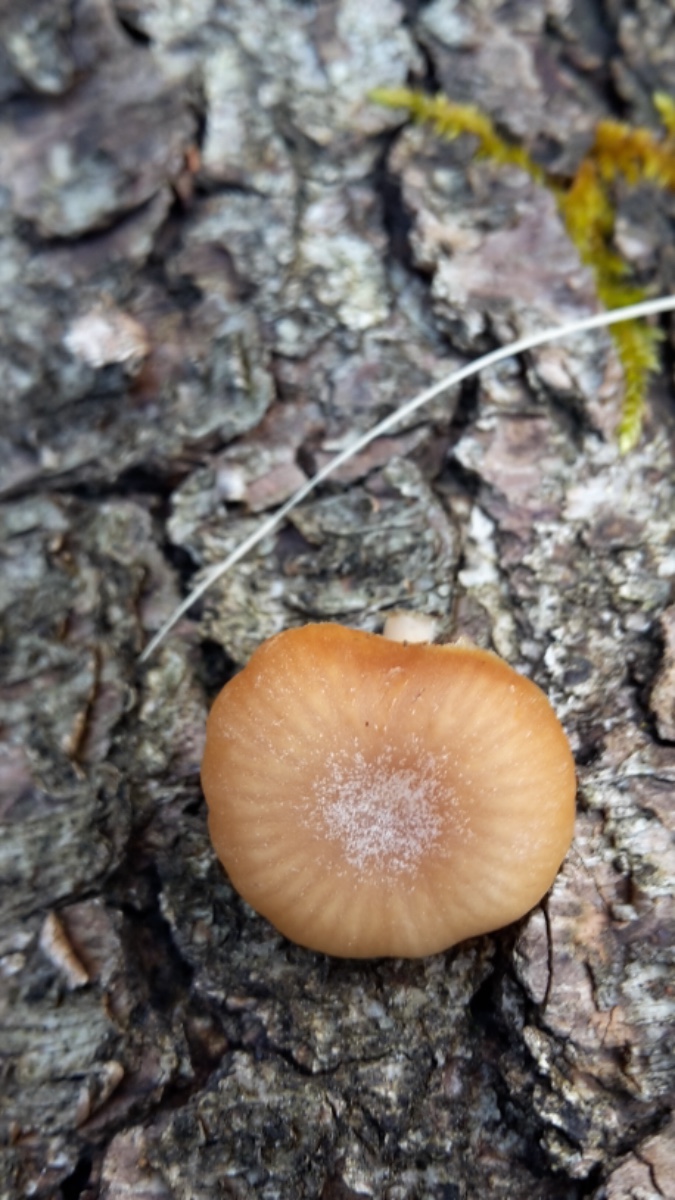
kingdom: Fungi
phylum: Basidiomycota
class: Agaricomycetes
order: Agaricales
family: Tubariaceae
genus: Tubaria
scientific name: Tubaria furfuracea
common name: kliddet fnughat
